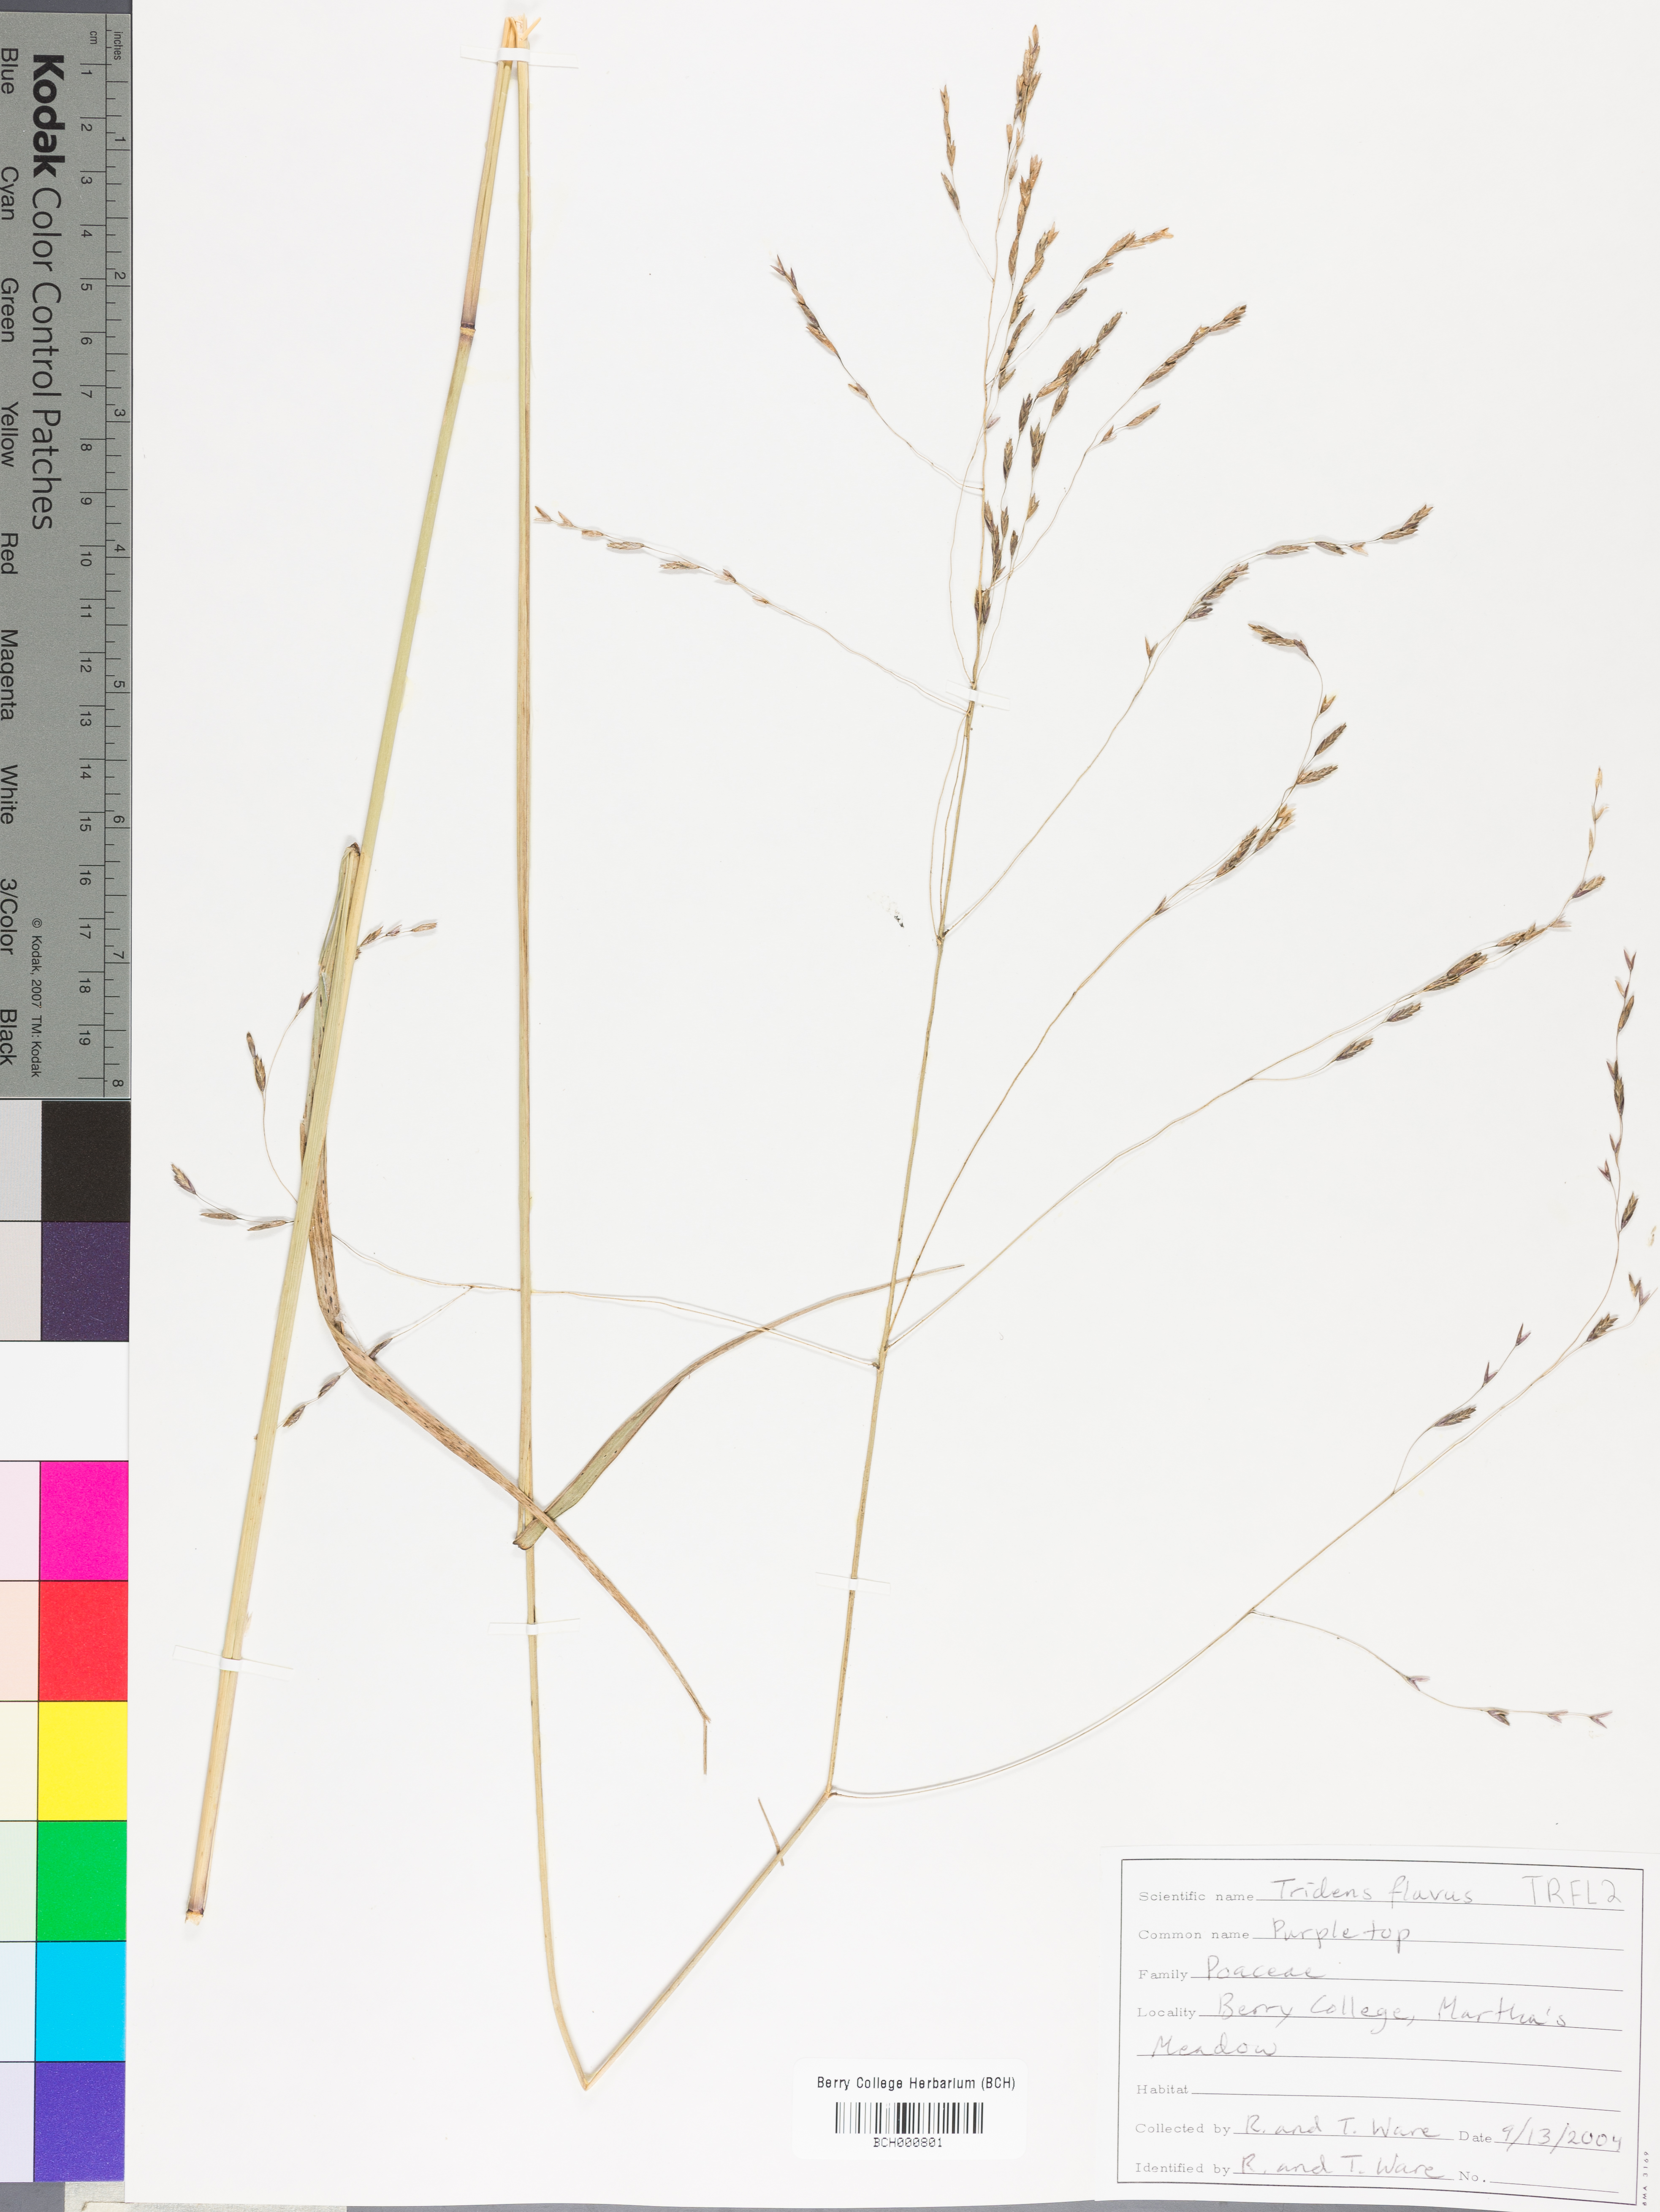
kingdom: Plantae
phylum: Tracheophyta
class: Liliopsida
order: Poales
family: Poaceae
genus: Tridens
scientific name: Tridens flavus
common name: Purpletop
